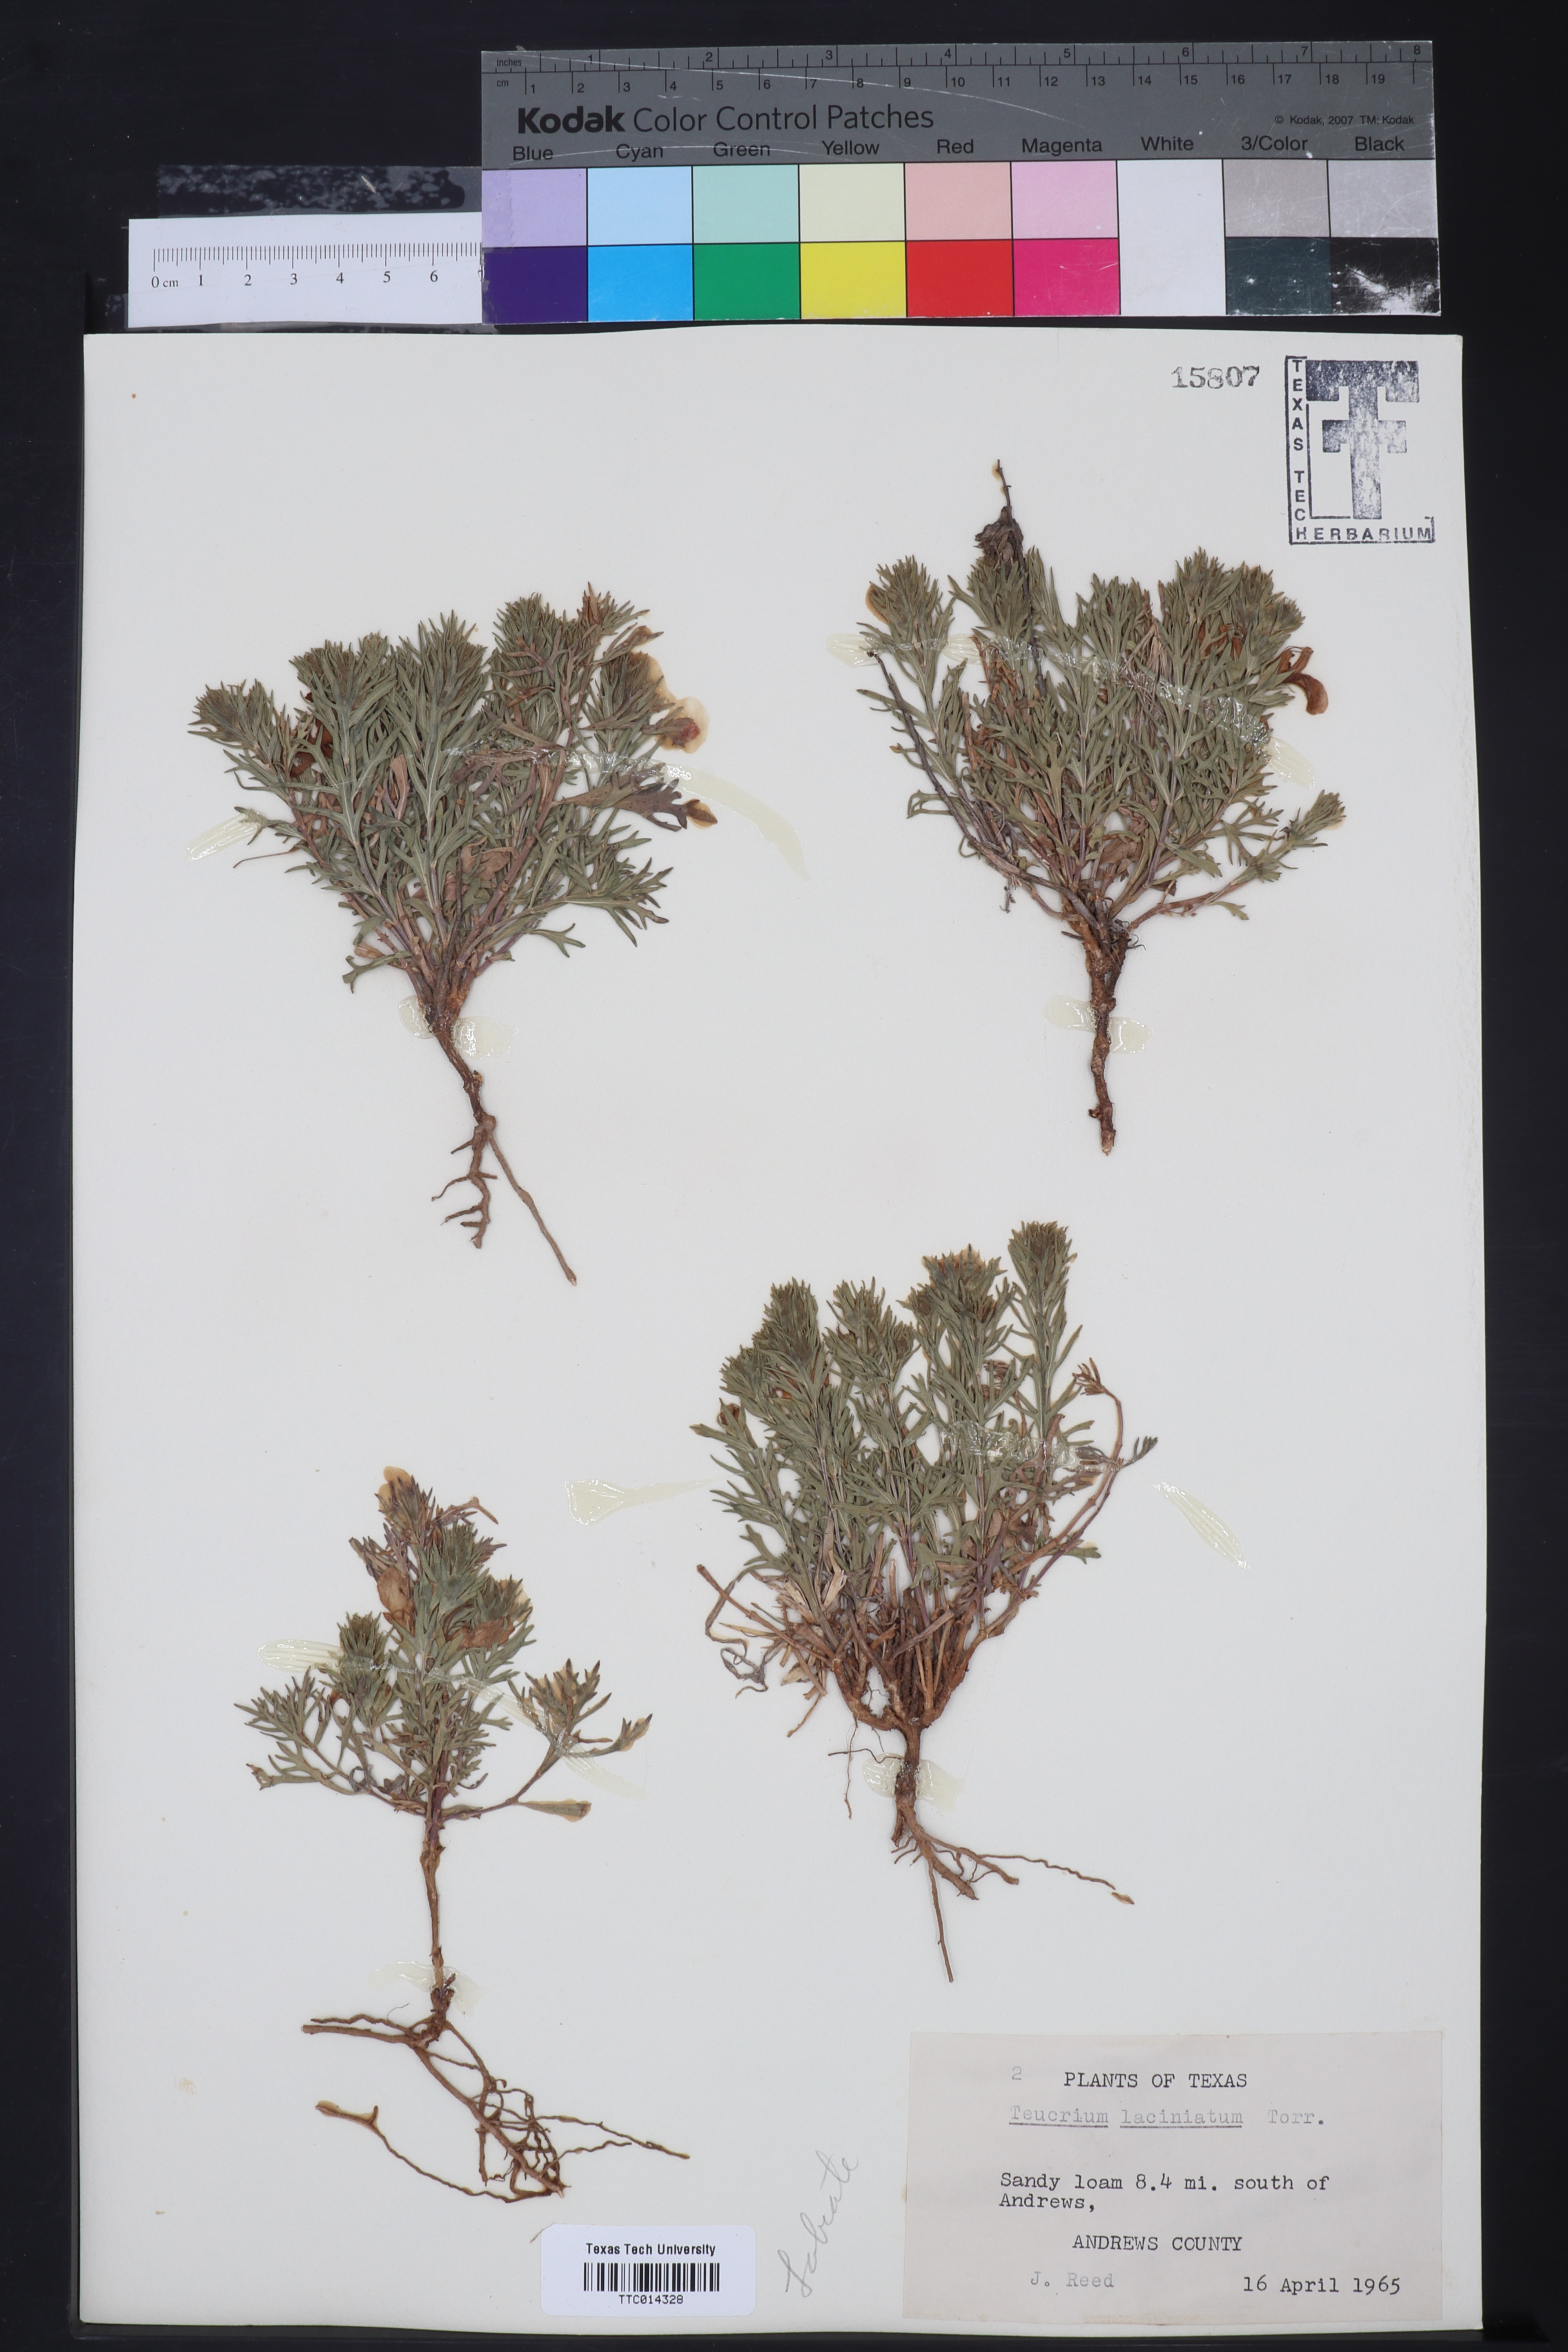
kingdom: Plantae
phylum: Tracheophyta
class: Magnoliopsida
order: Lamiales
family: Lamiaceae
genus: Teucrium
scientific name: Teucrium laciniatum
